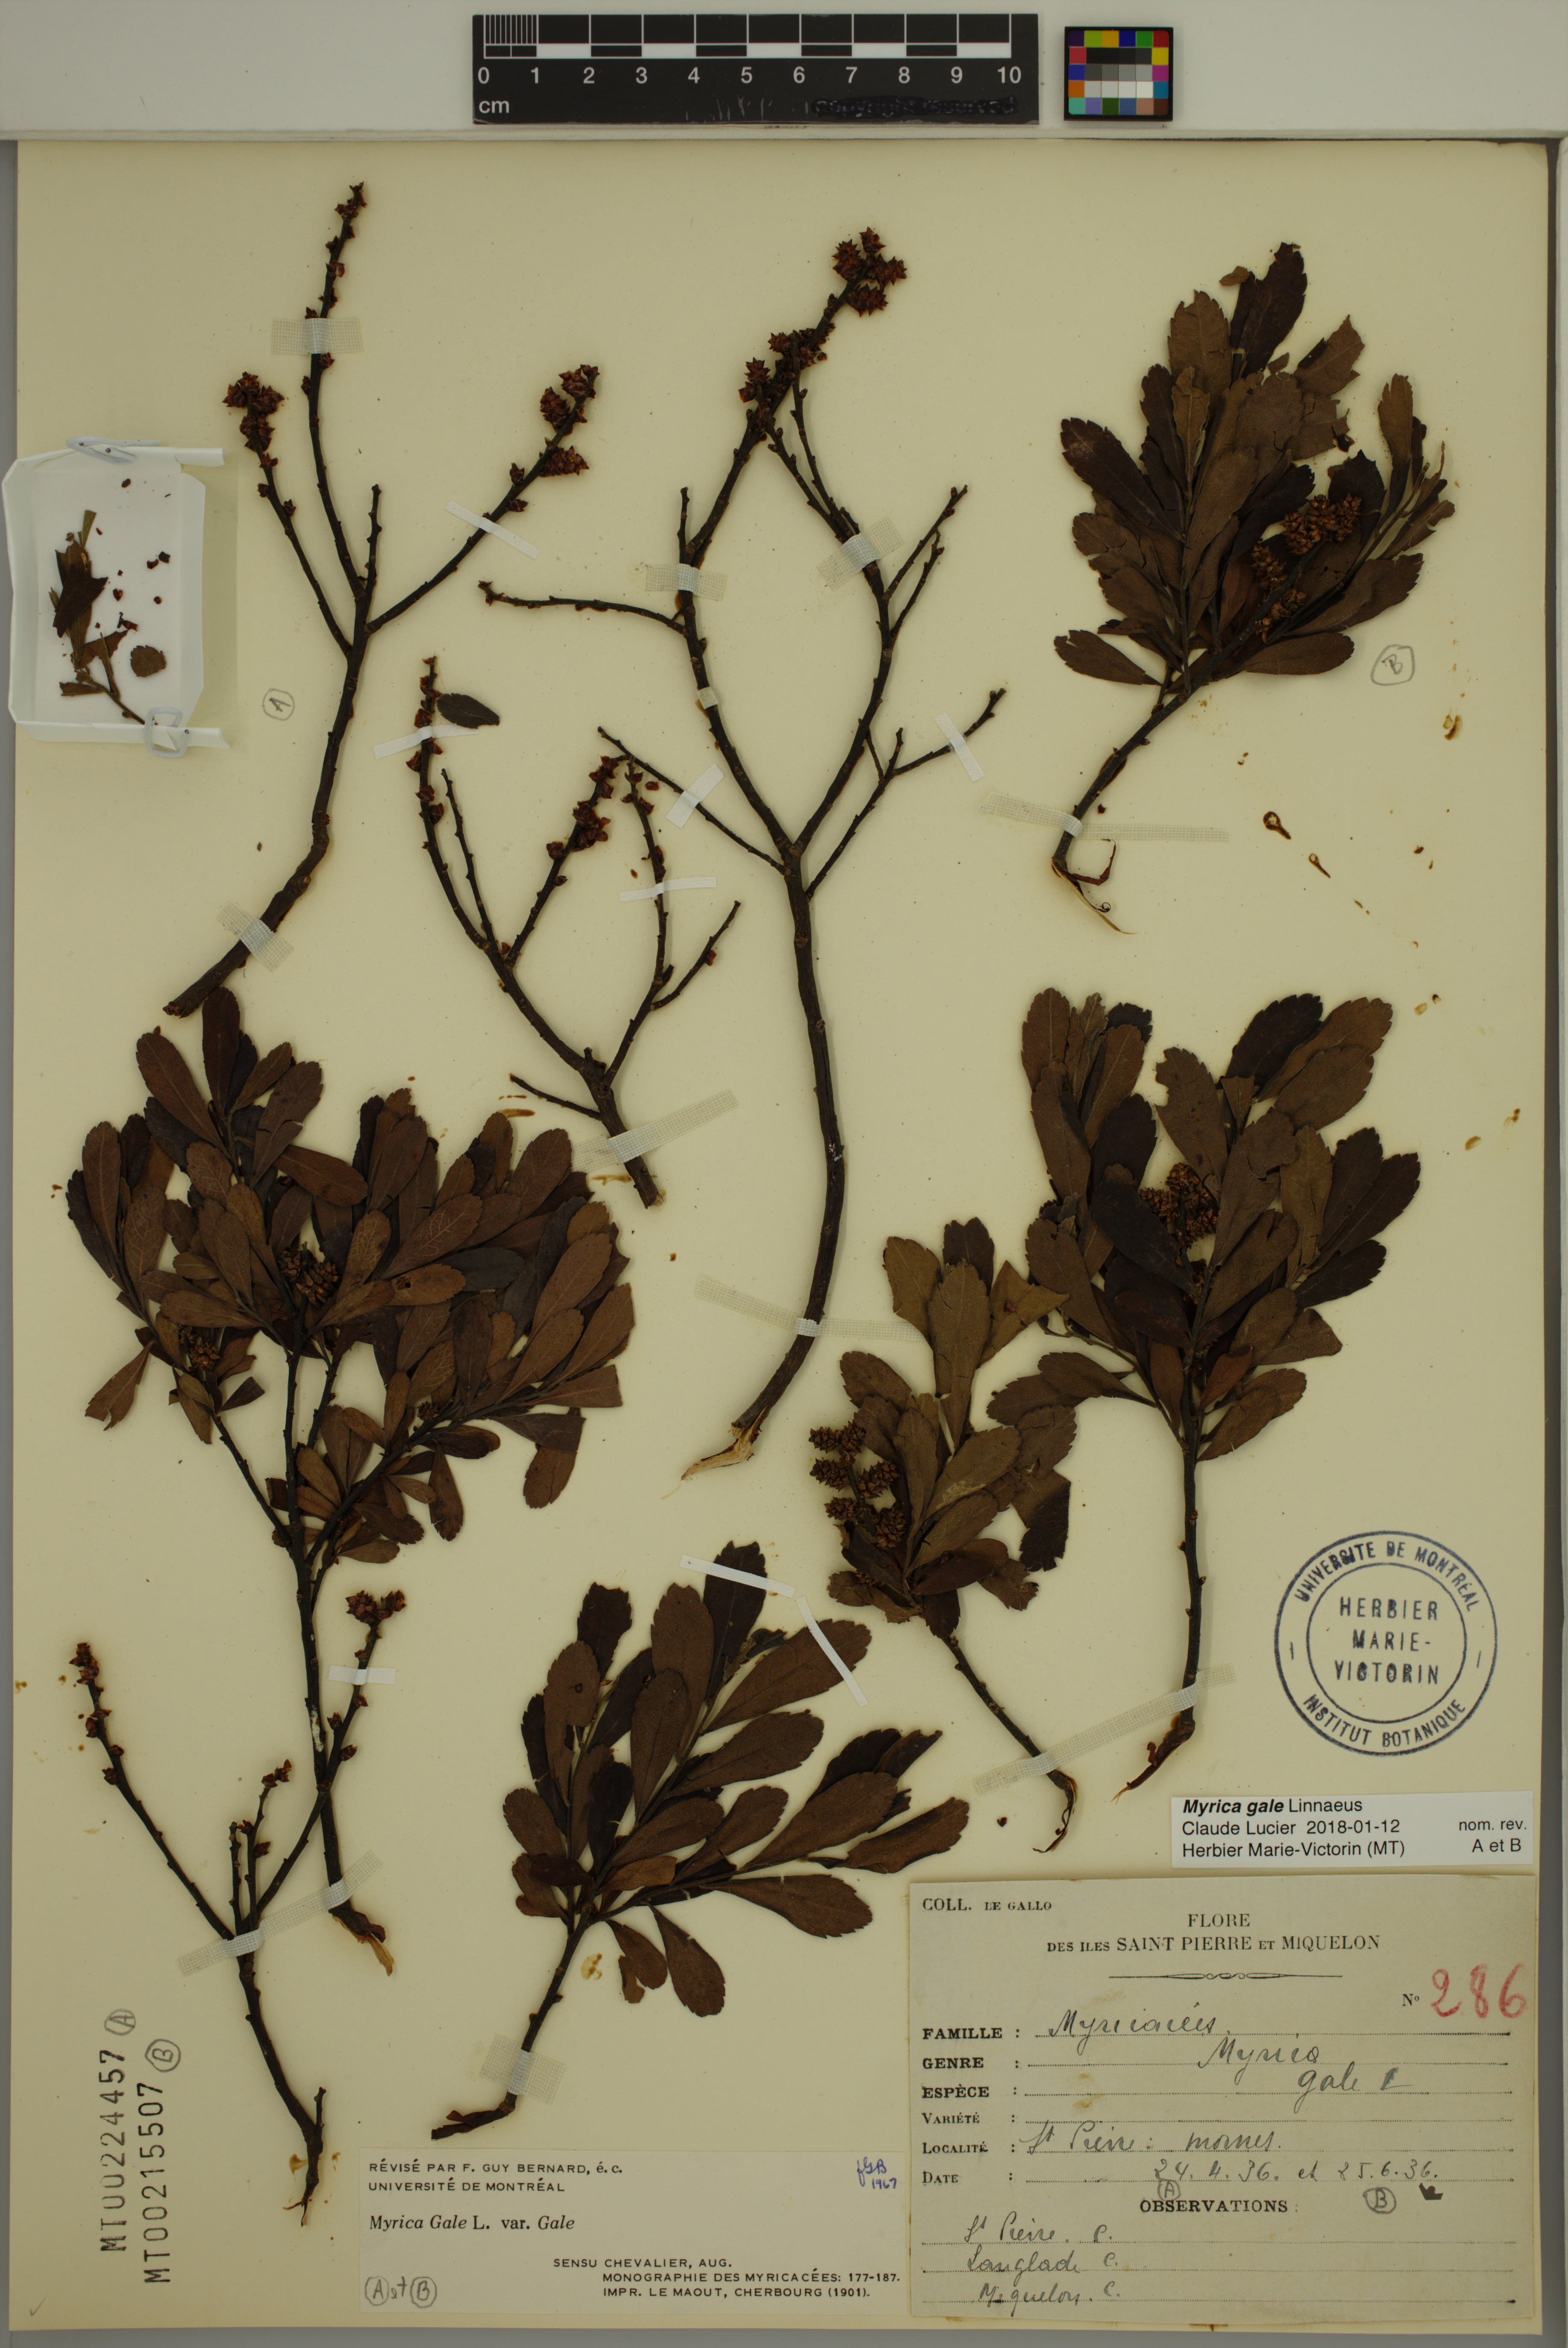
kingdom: Plantae
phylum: Tracheophyta
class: Magnoliopsida
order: Fagales
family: Myricaceae
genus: Myrica
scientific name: Myrica gale
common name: Sweet gale
